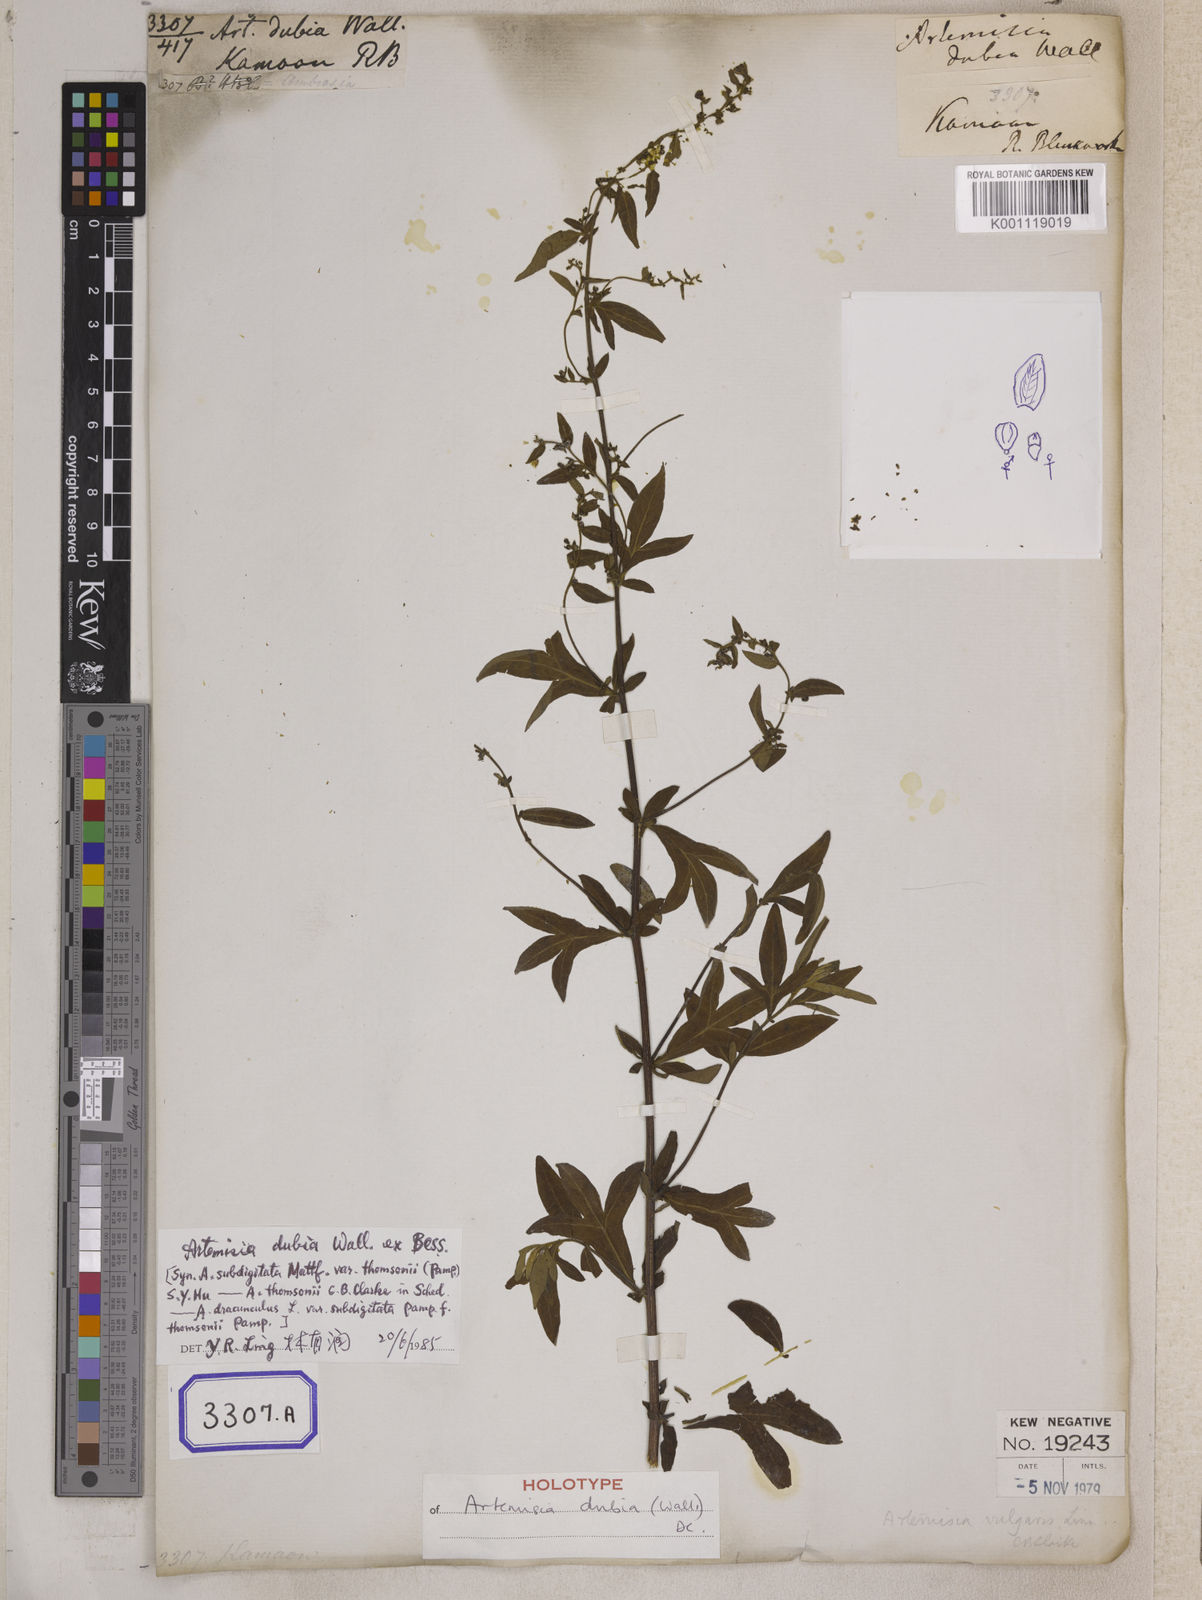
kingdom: Plantae
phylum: Tracheophyta
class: Magnoliopsida
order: Asterales
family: Asteraceae
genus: Artemisia
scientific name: Artemisia
